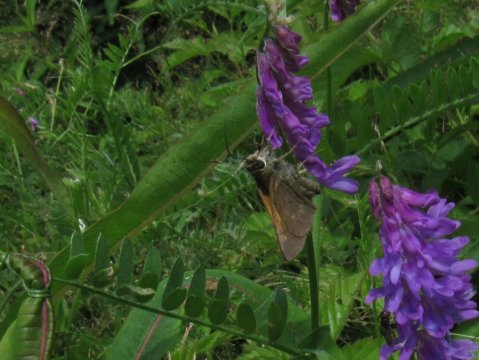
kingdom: Animalia
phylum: Arthropoda
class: Insecta
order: Lepidoptera
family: Hesperiidae
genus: Polites
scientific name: Polites themistocles
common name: Tawny-edged Skipper
